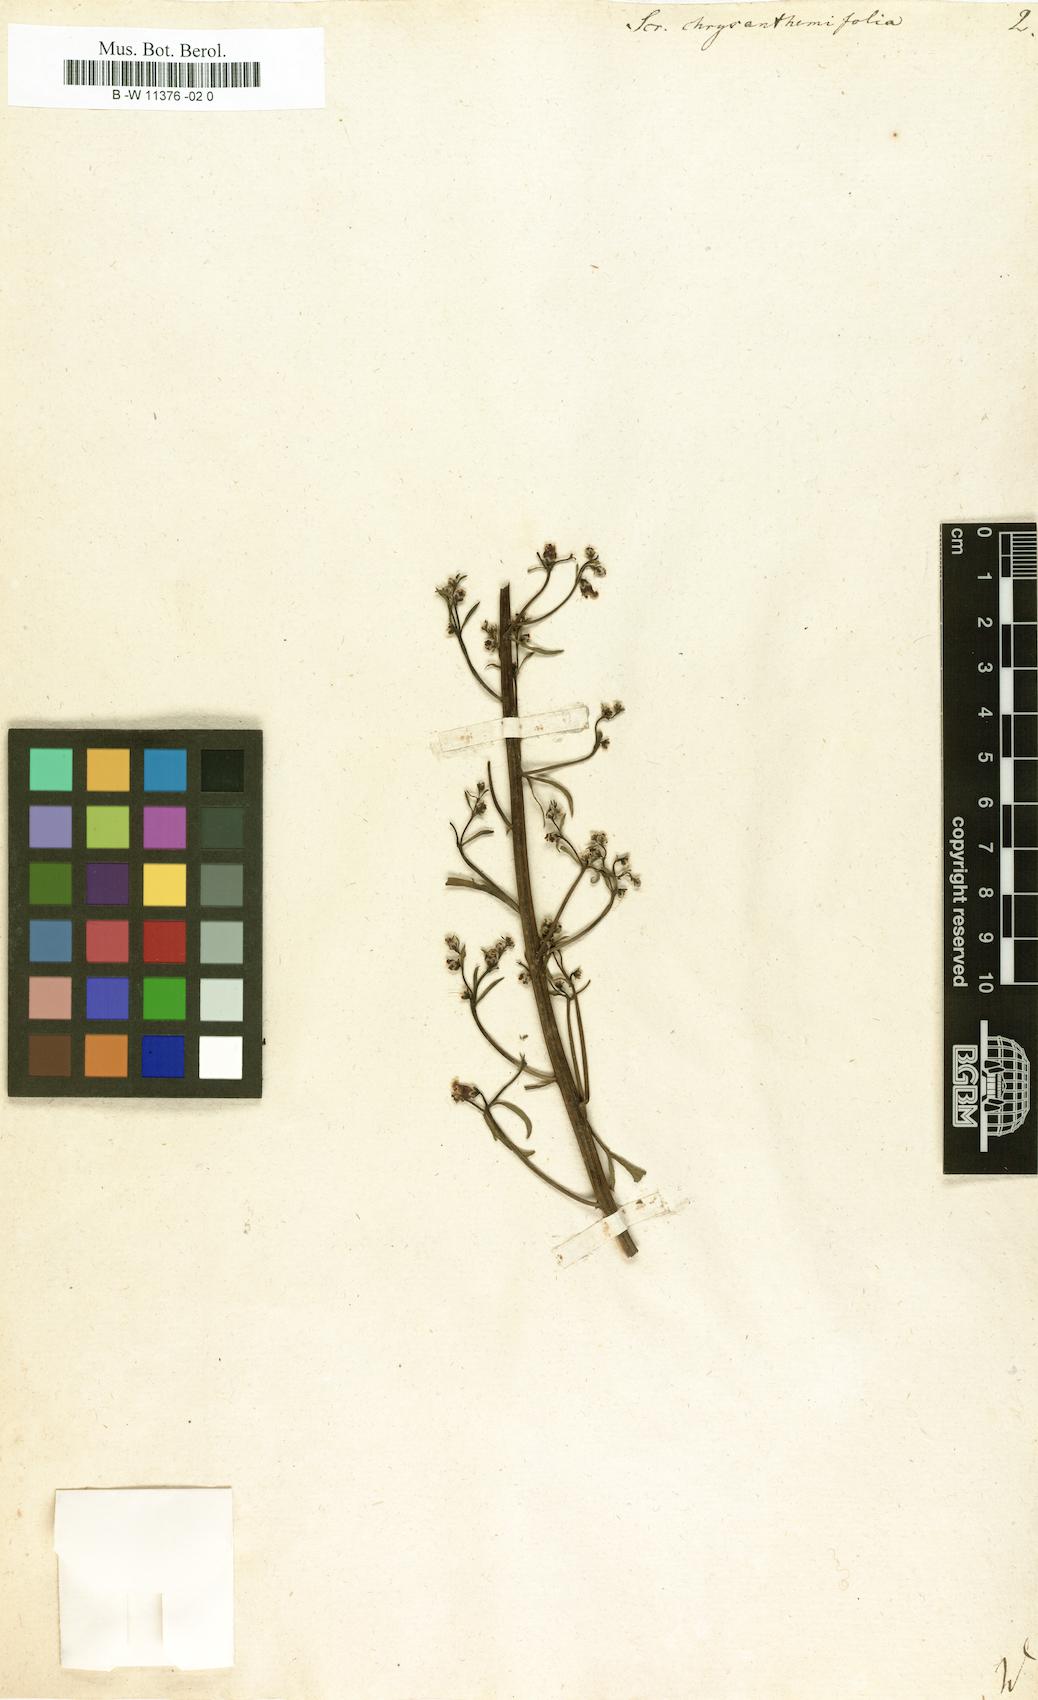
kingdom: Plantae
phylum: Tracheophyta
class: Magnoliopsida
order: Lamiales
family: Scrophulariaceae
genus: Scrophularia
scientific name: Scrophularia
